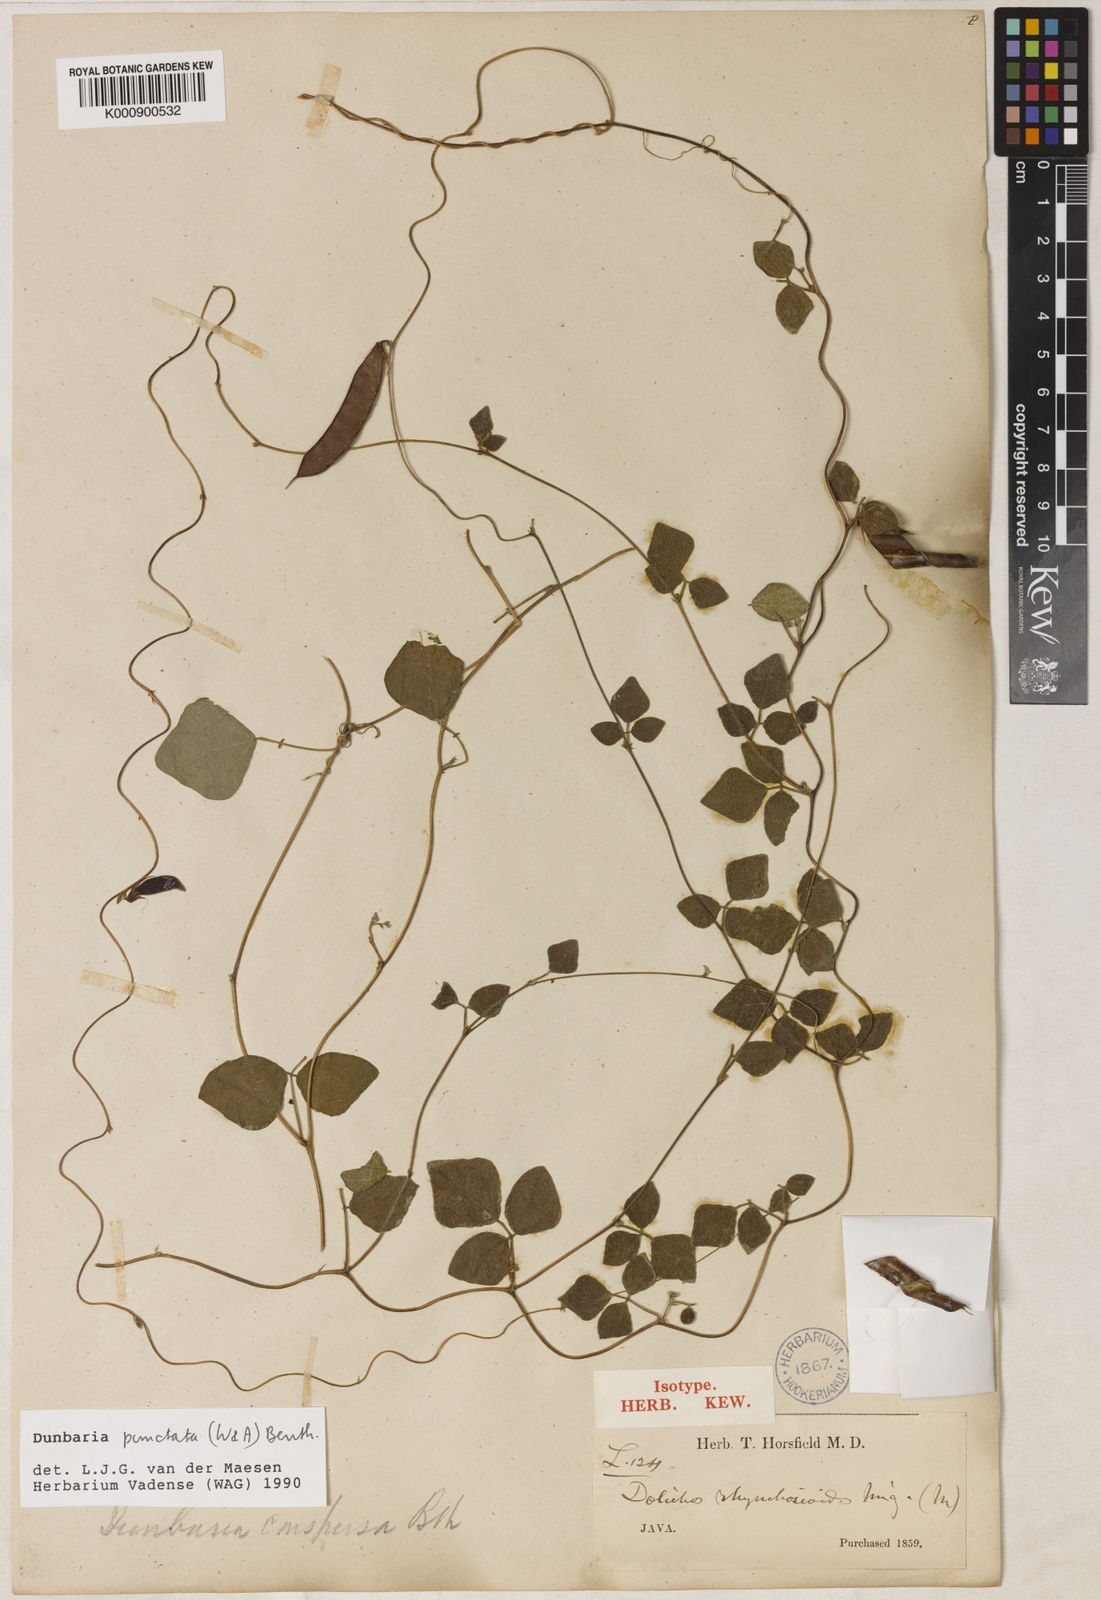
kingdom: Plantae
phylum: Tracheophyta
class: Magnoliopsida
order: Fabales
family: Fabaceae
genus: Dunbaria
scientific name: Dunbaria punctata
